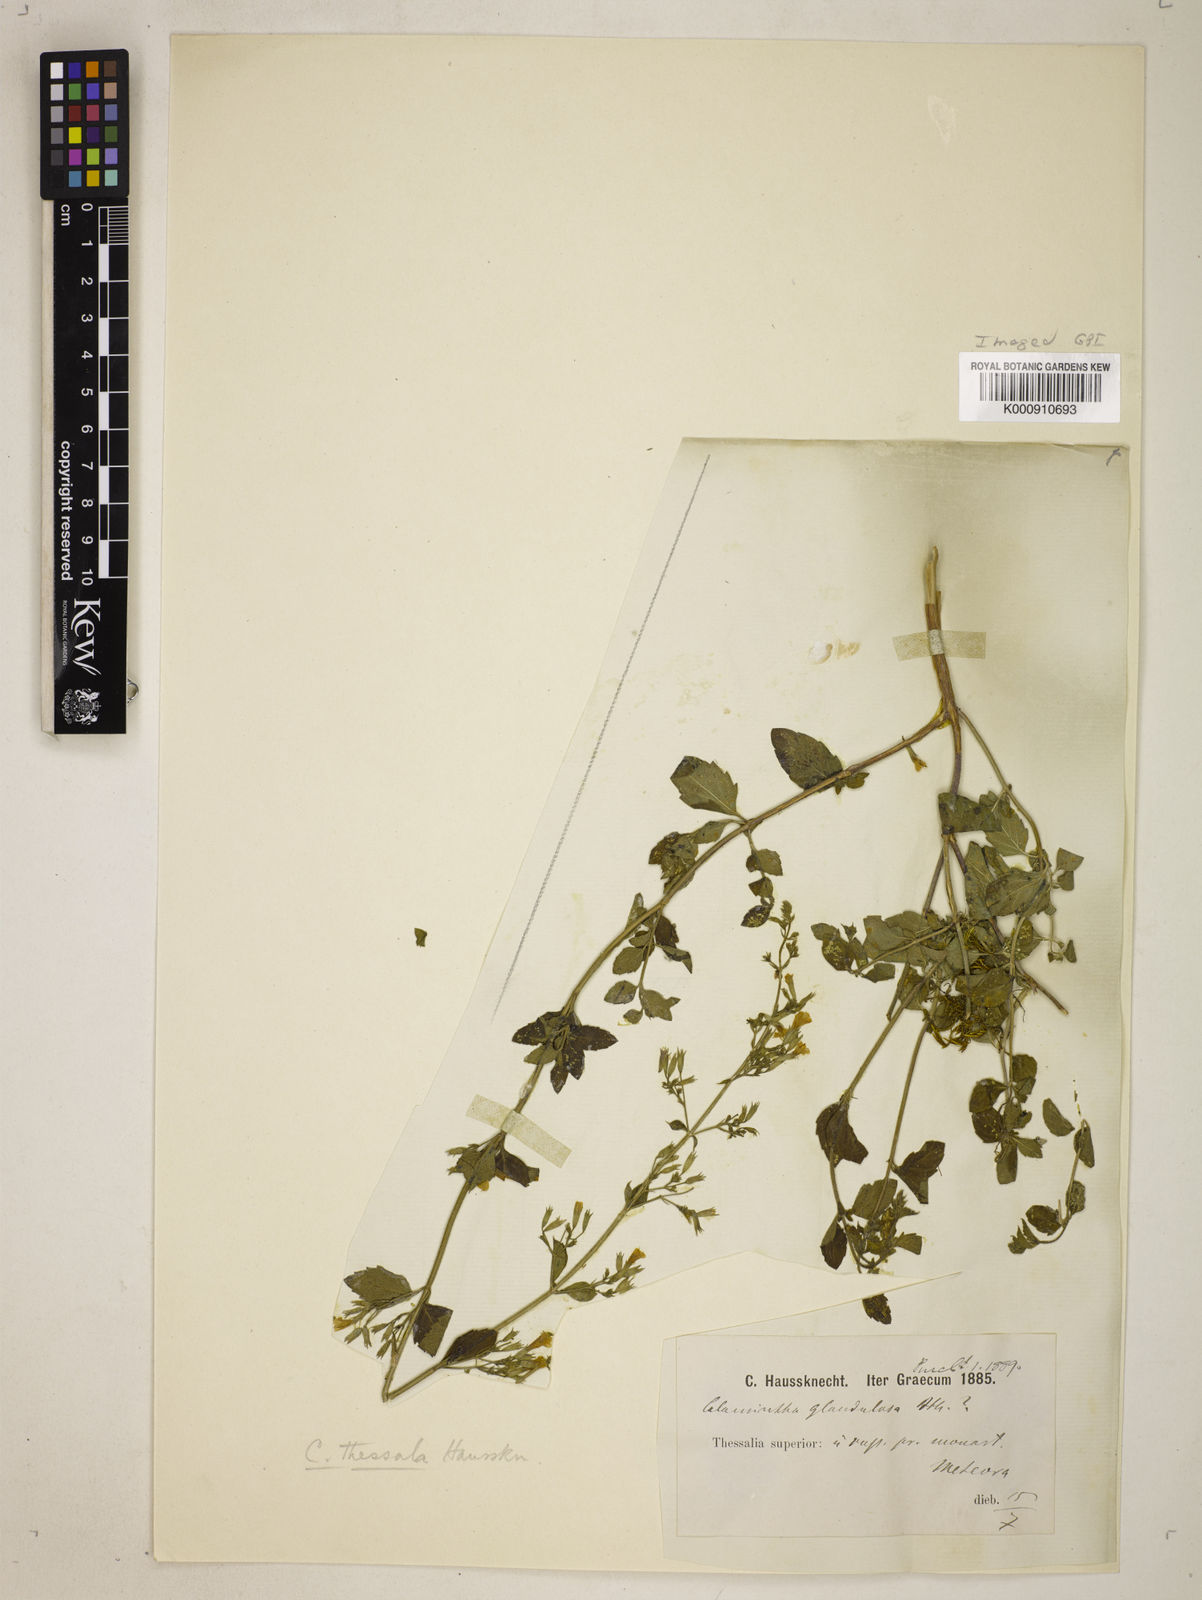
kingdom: Plantae
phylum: Tracheophyta
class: Magnoliopsida
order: Lamiales
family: Lamiaceae
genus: Clinopodium
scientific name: Clinopodium
